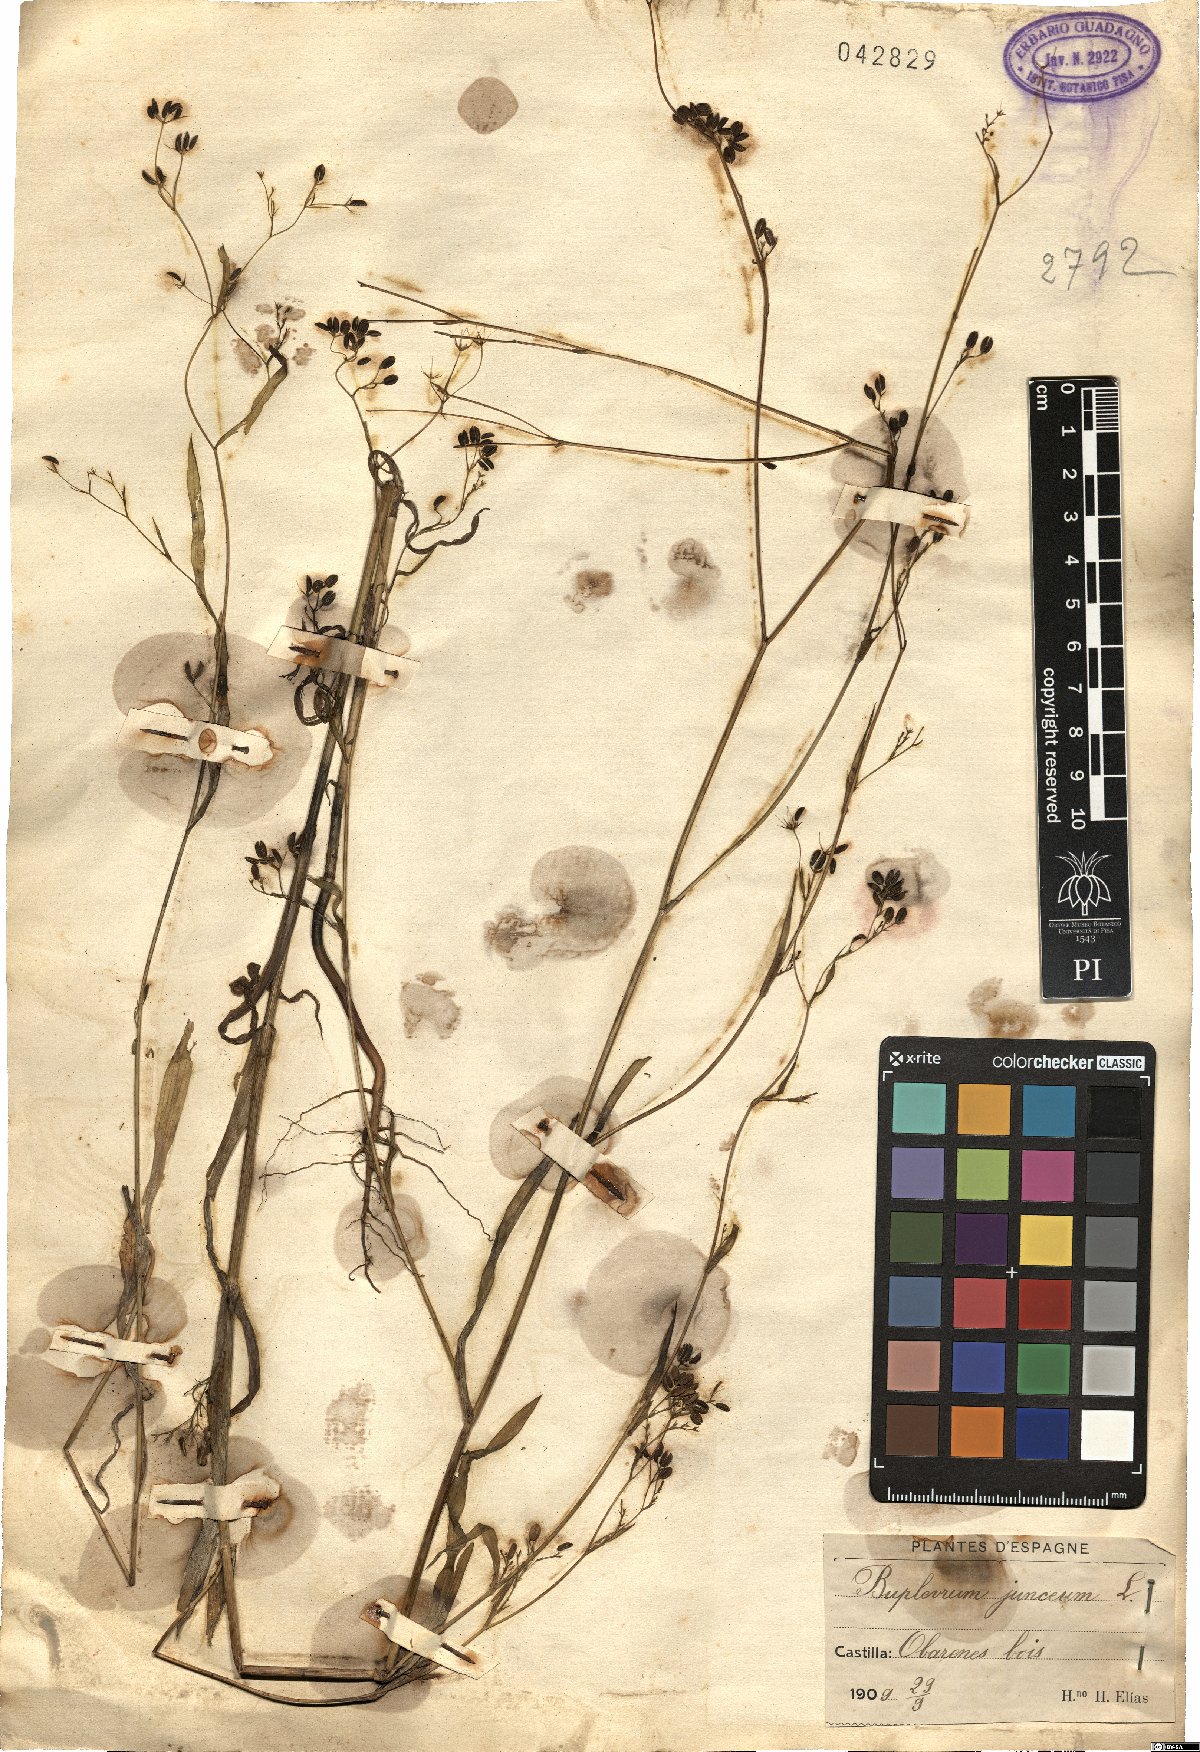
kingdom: Plantae
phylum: Tracheophyta
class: Magnoliopsida
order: Apiales
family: Apiaceae
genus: Bupleurum
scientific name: Bupleurum praealtum
